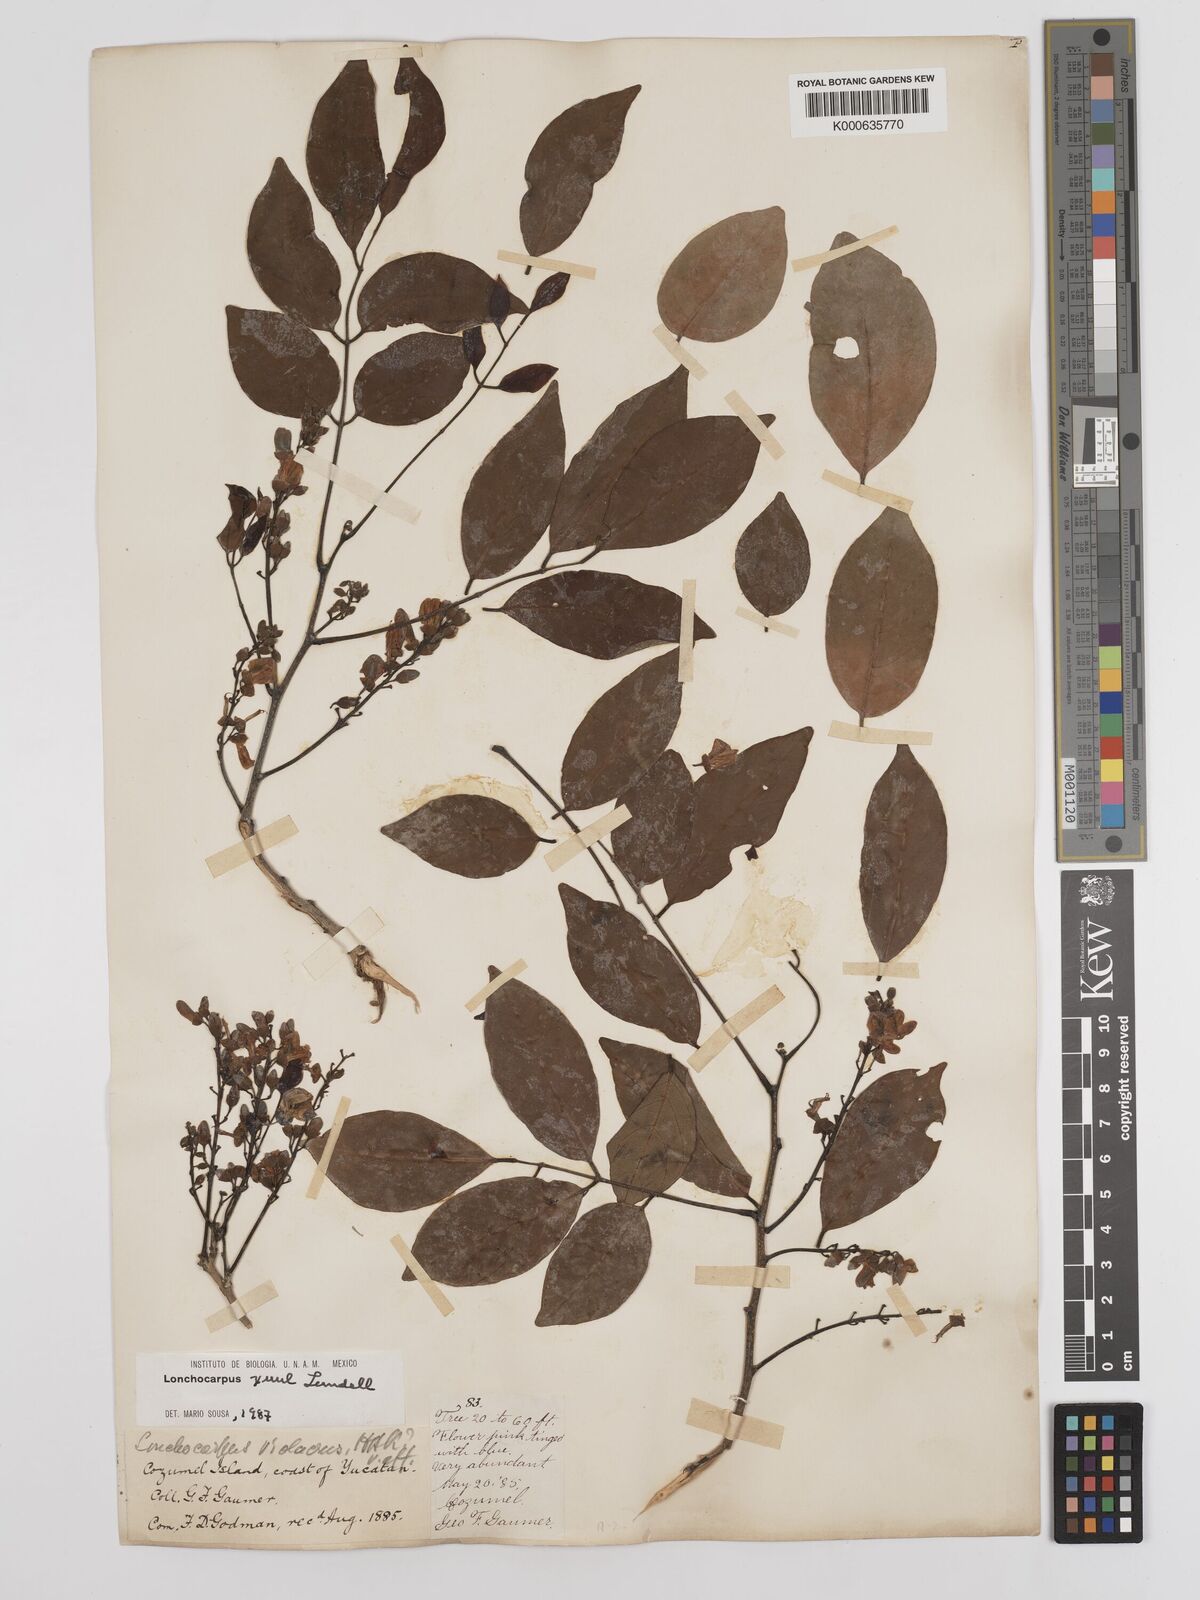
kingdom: Plantae
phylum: Tracheophyta
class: Magnoliopsida
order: Fabales
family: Fabaceae
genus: Lonchocarpus
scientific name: Lonchocarpus guatemalensis
